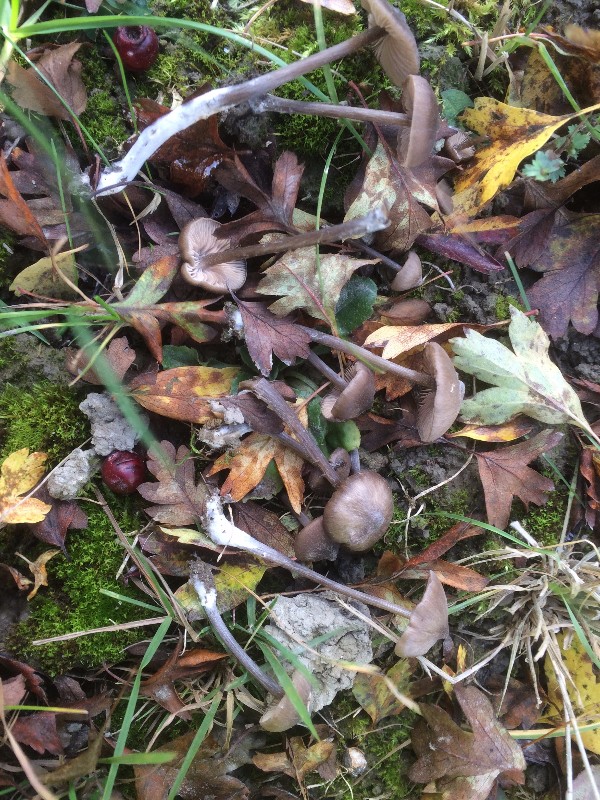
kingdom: Fungi
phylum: Basidiomycota
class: Agaricomycetes
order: Agaricales
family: Entolomataceae
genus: Entoloma
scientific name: Entoloma hebes
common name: Pimple pinkgill
